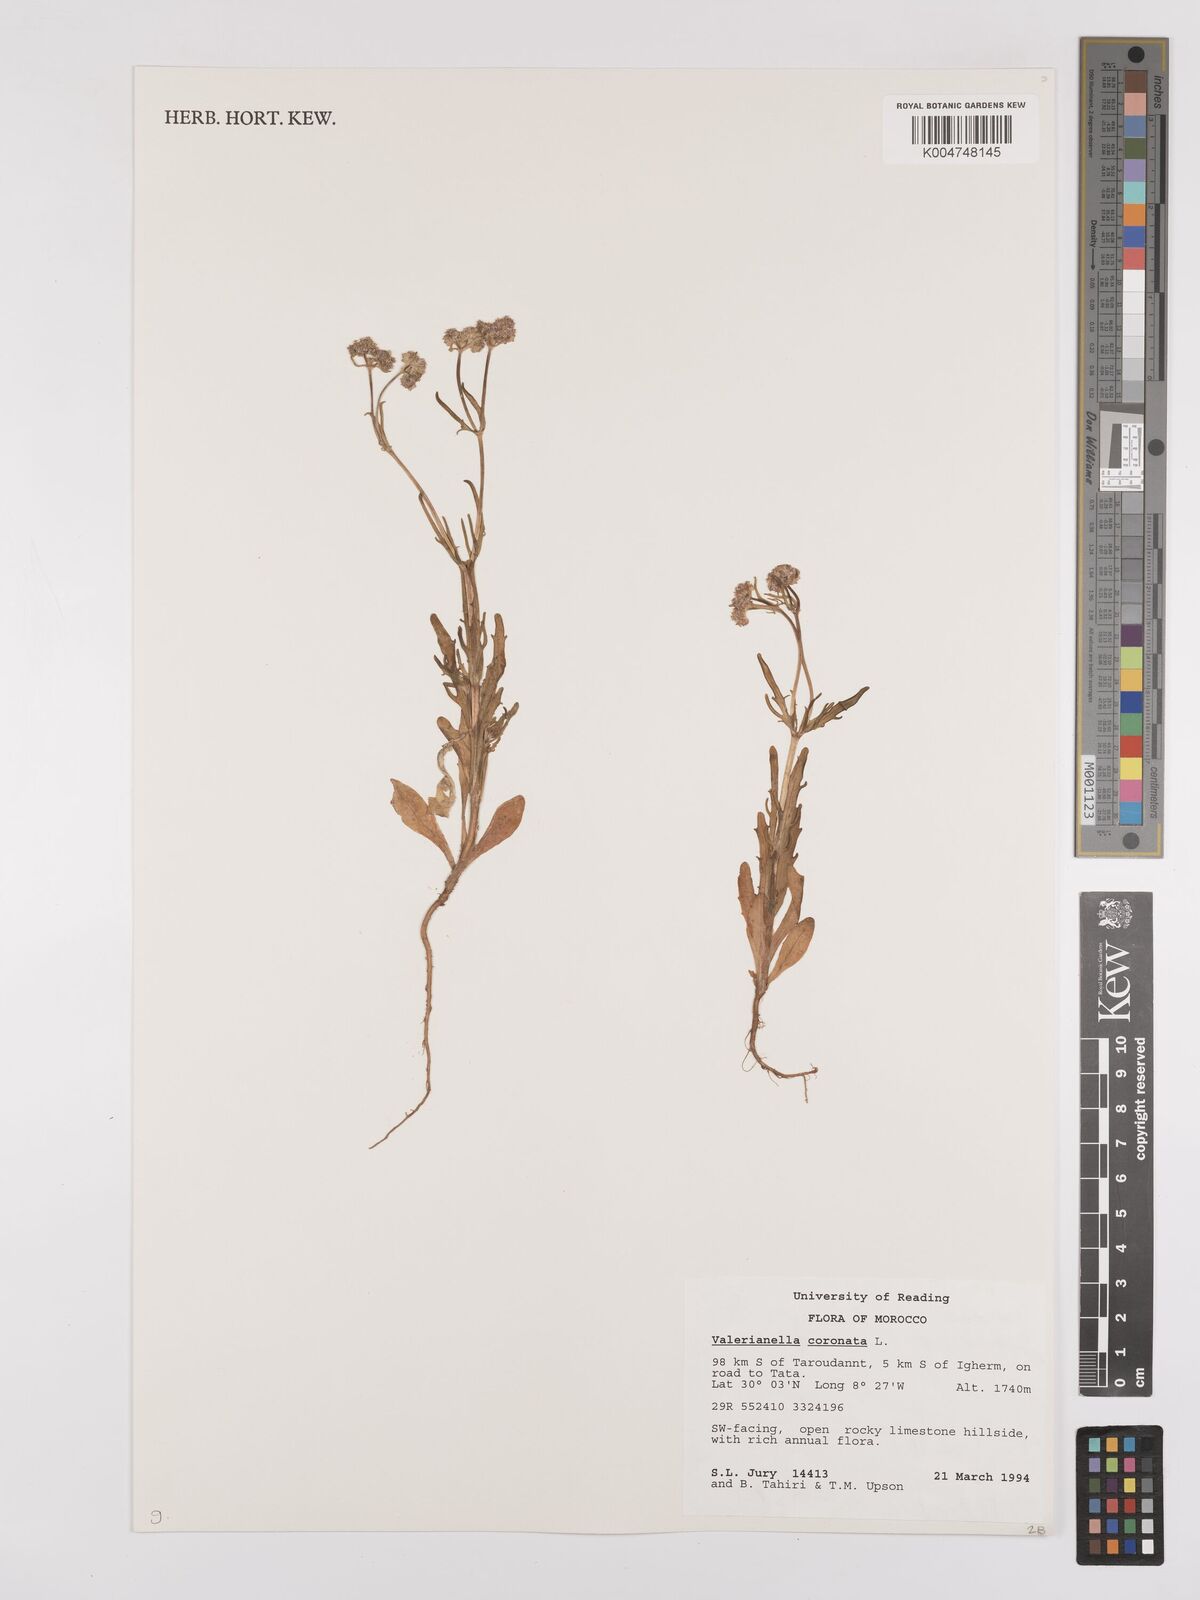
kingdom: Plantae
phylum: Tracheophyta
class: Magnoliopsida
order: Dipsacales
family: Caprifoliaceae
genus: Valerianella
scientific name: Valerianella
